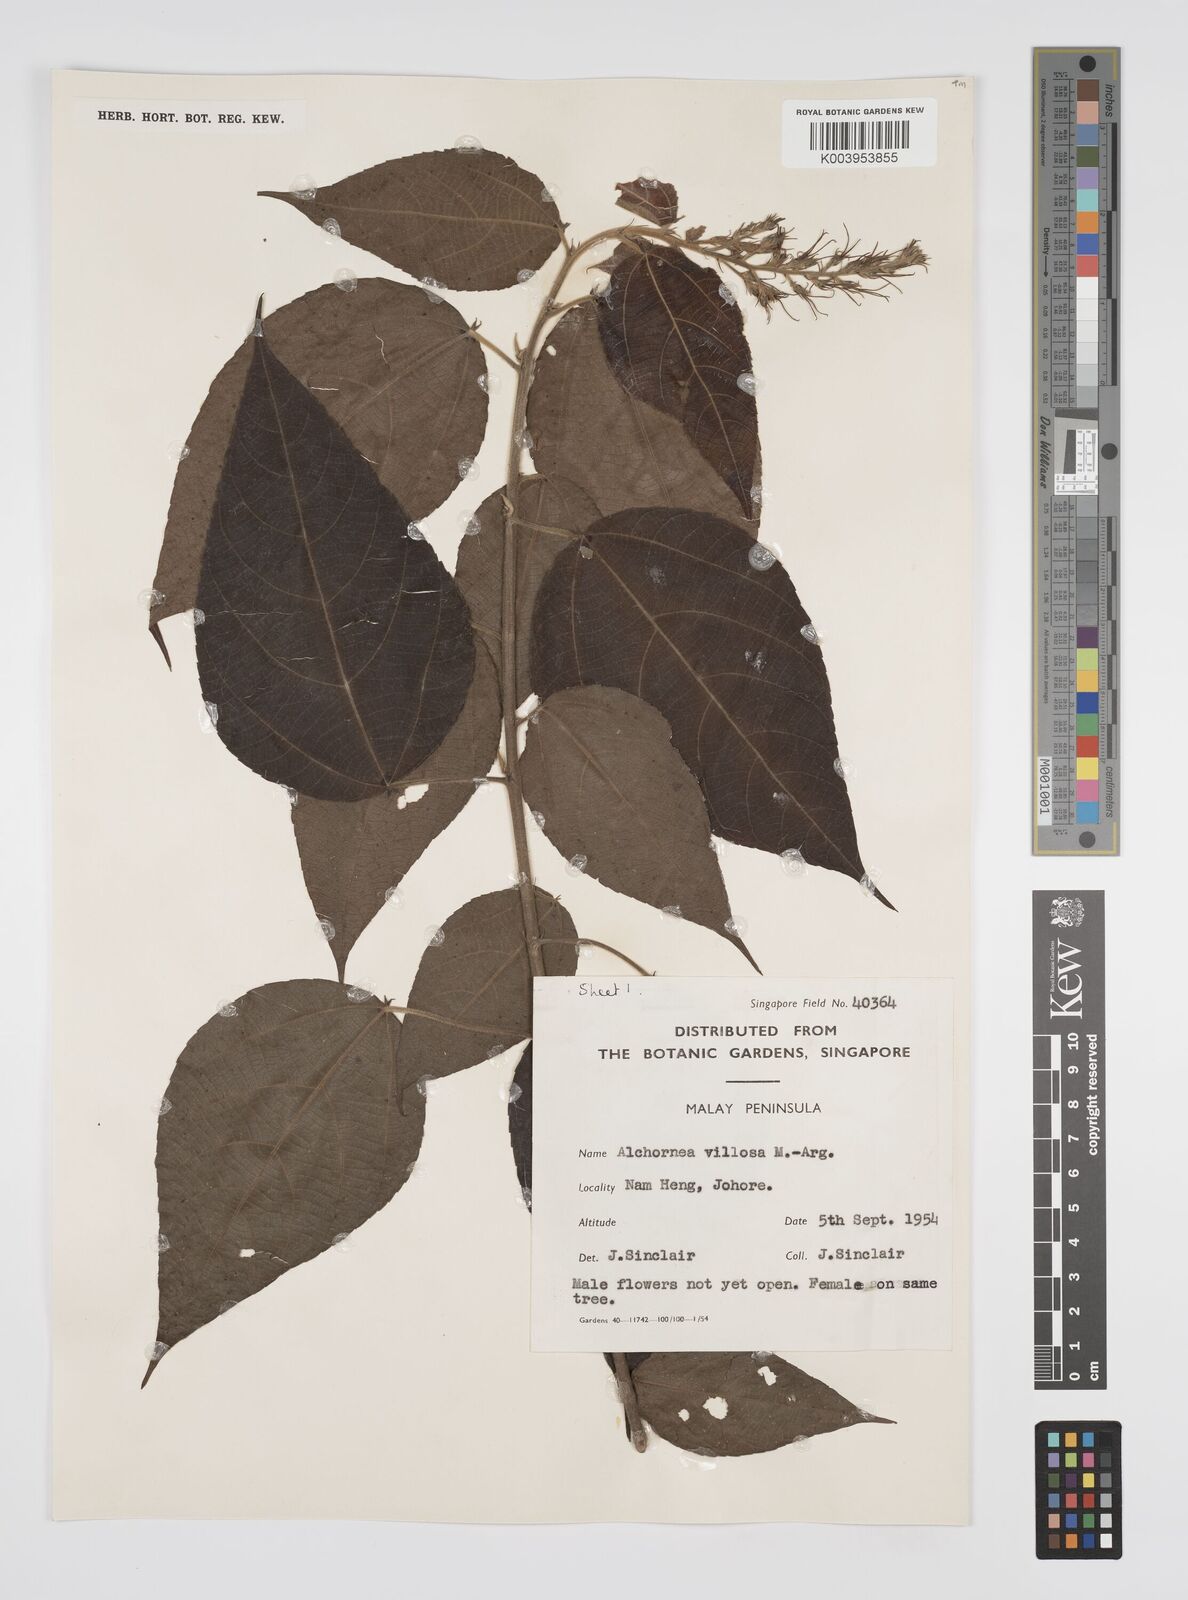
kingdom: Plantae
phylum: Tracheophyta
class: Magnoliopsida
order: Malpighiales
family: Euphorbiaceae
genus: Alchornea
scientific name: Alchornea tiliifolia
